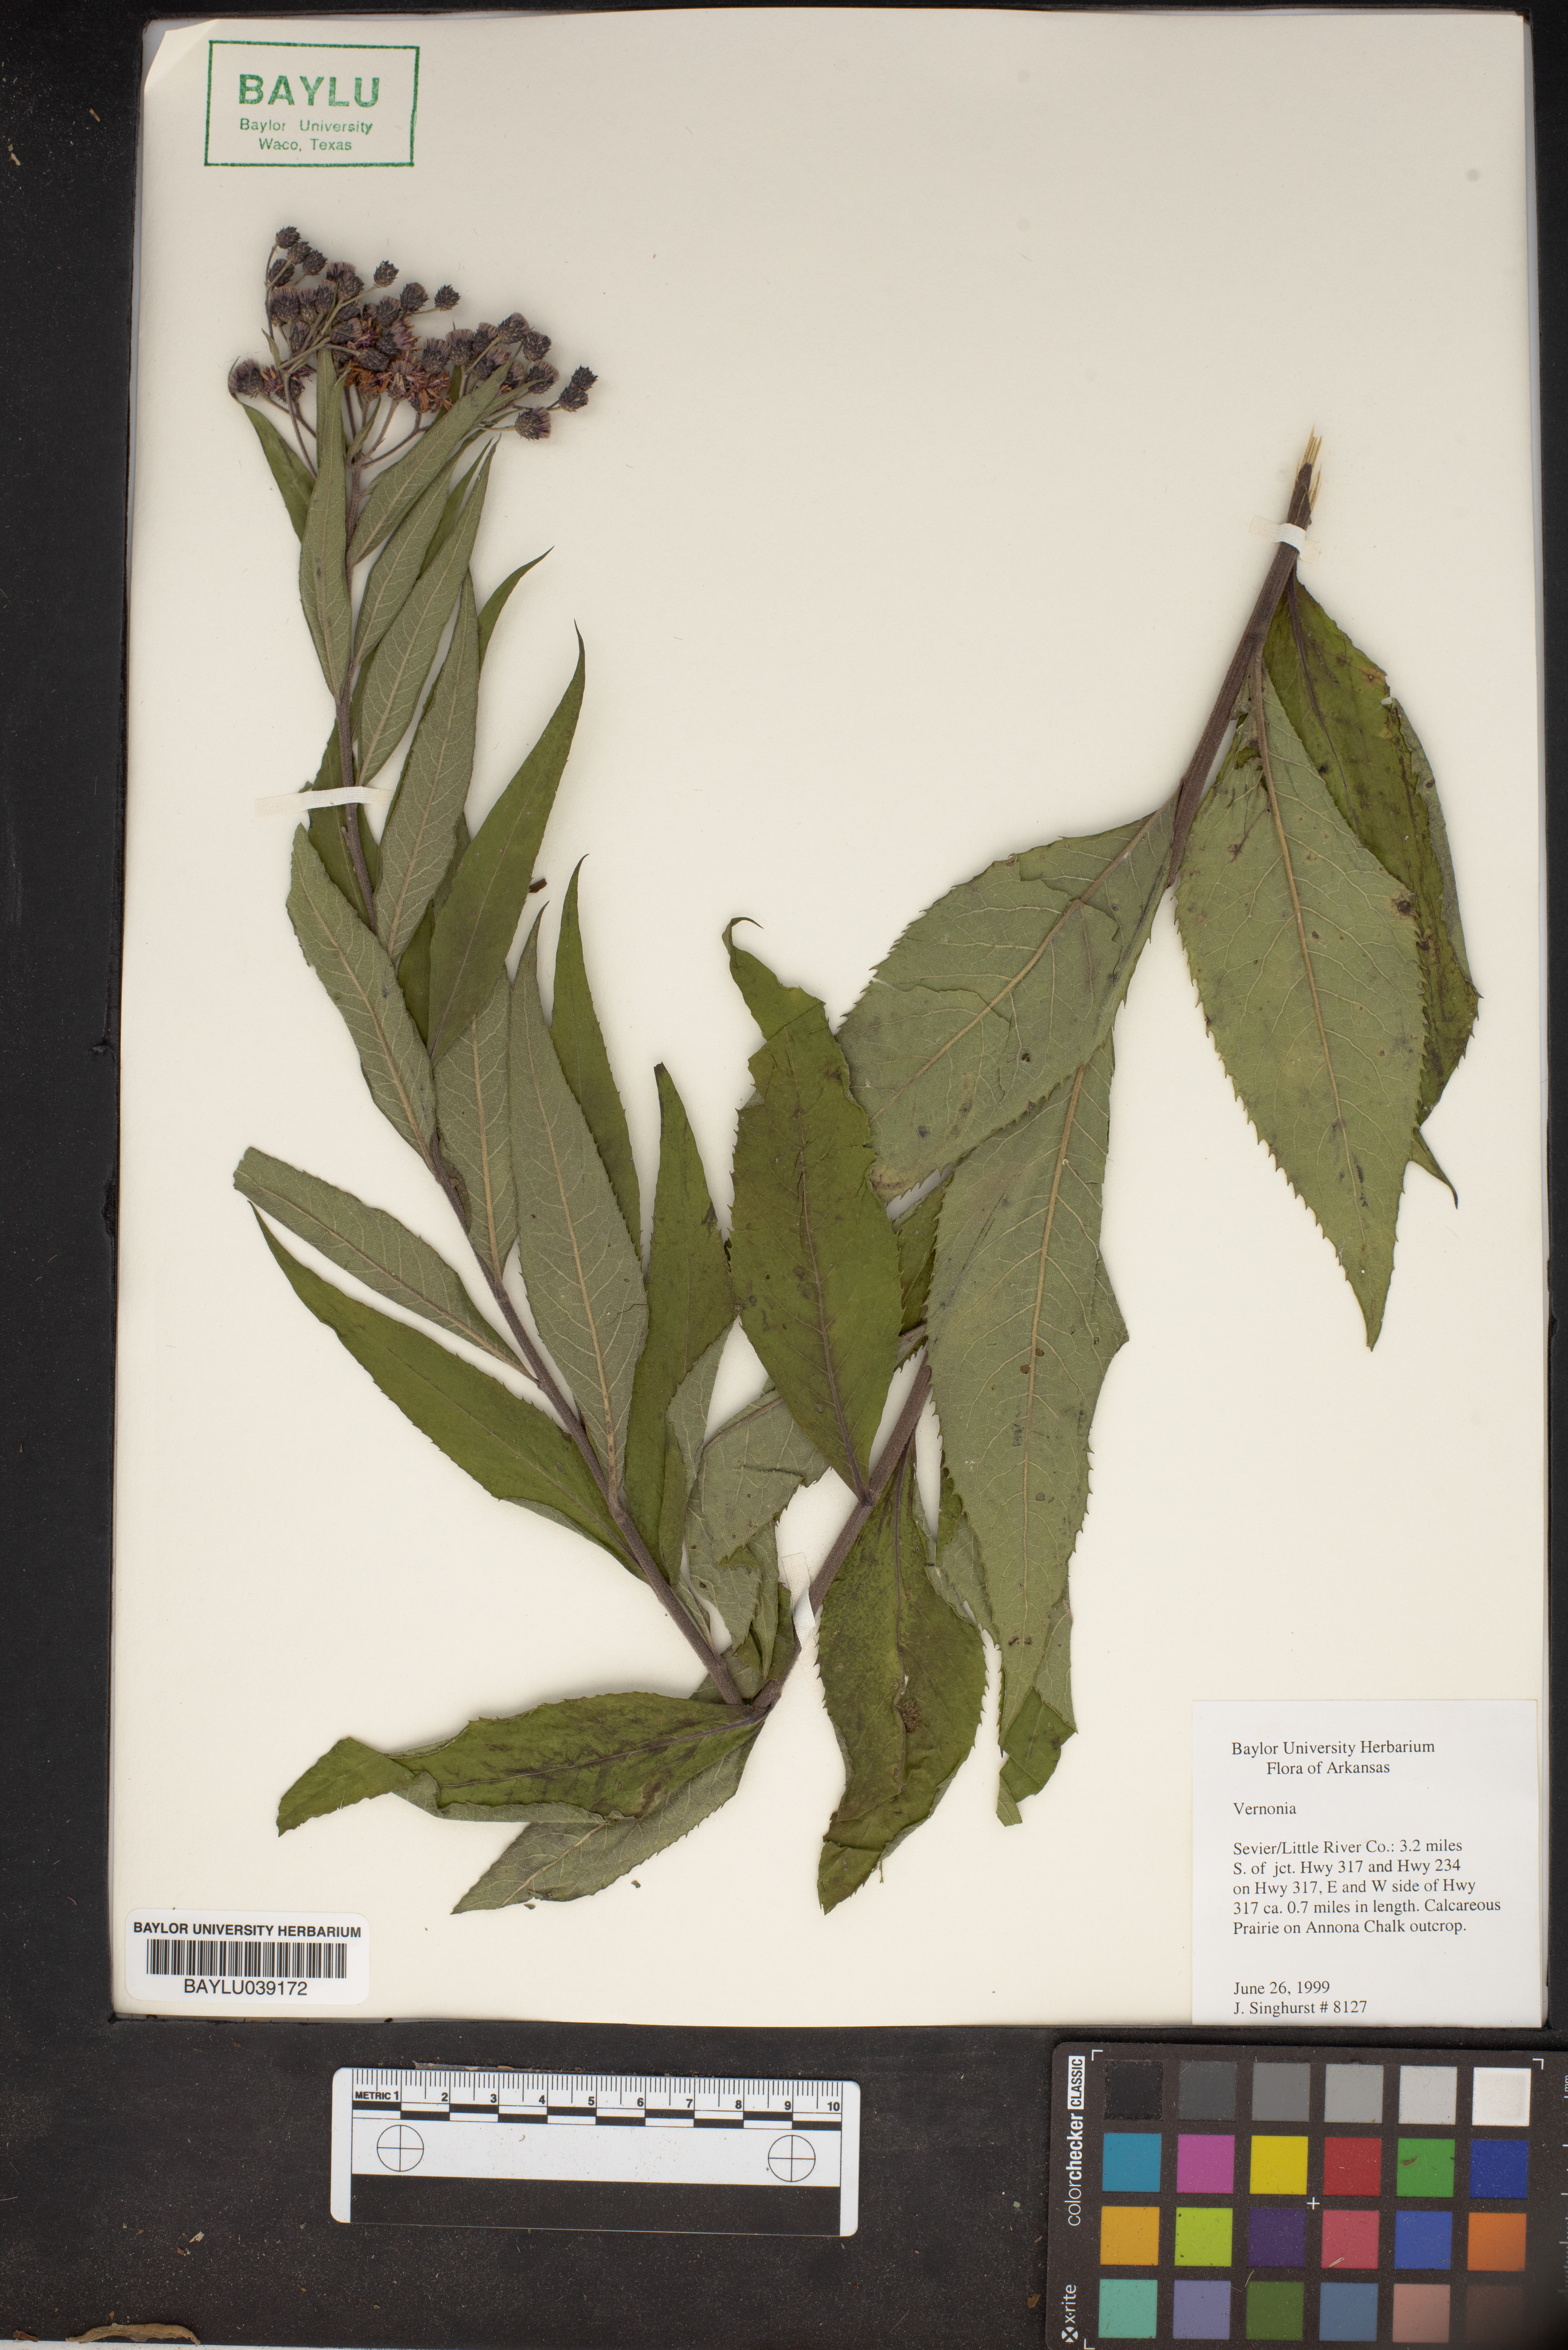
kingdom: Plantae
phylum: Tracheophyta
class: Magnoliopsida
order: Asterales
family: Asteraceae
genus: Vernonia
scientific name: Vernonia
